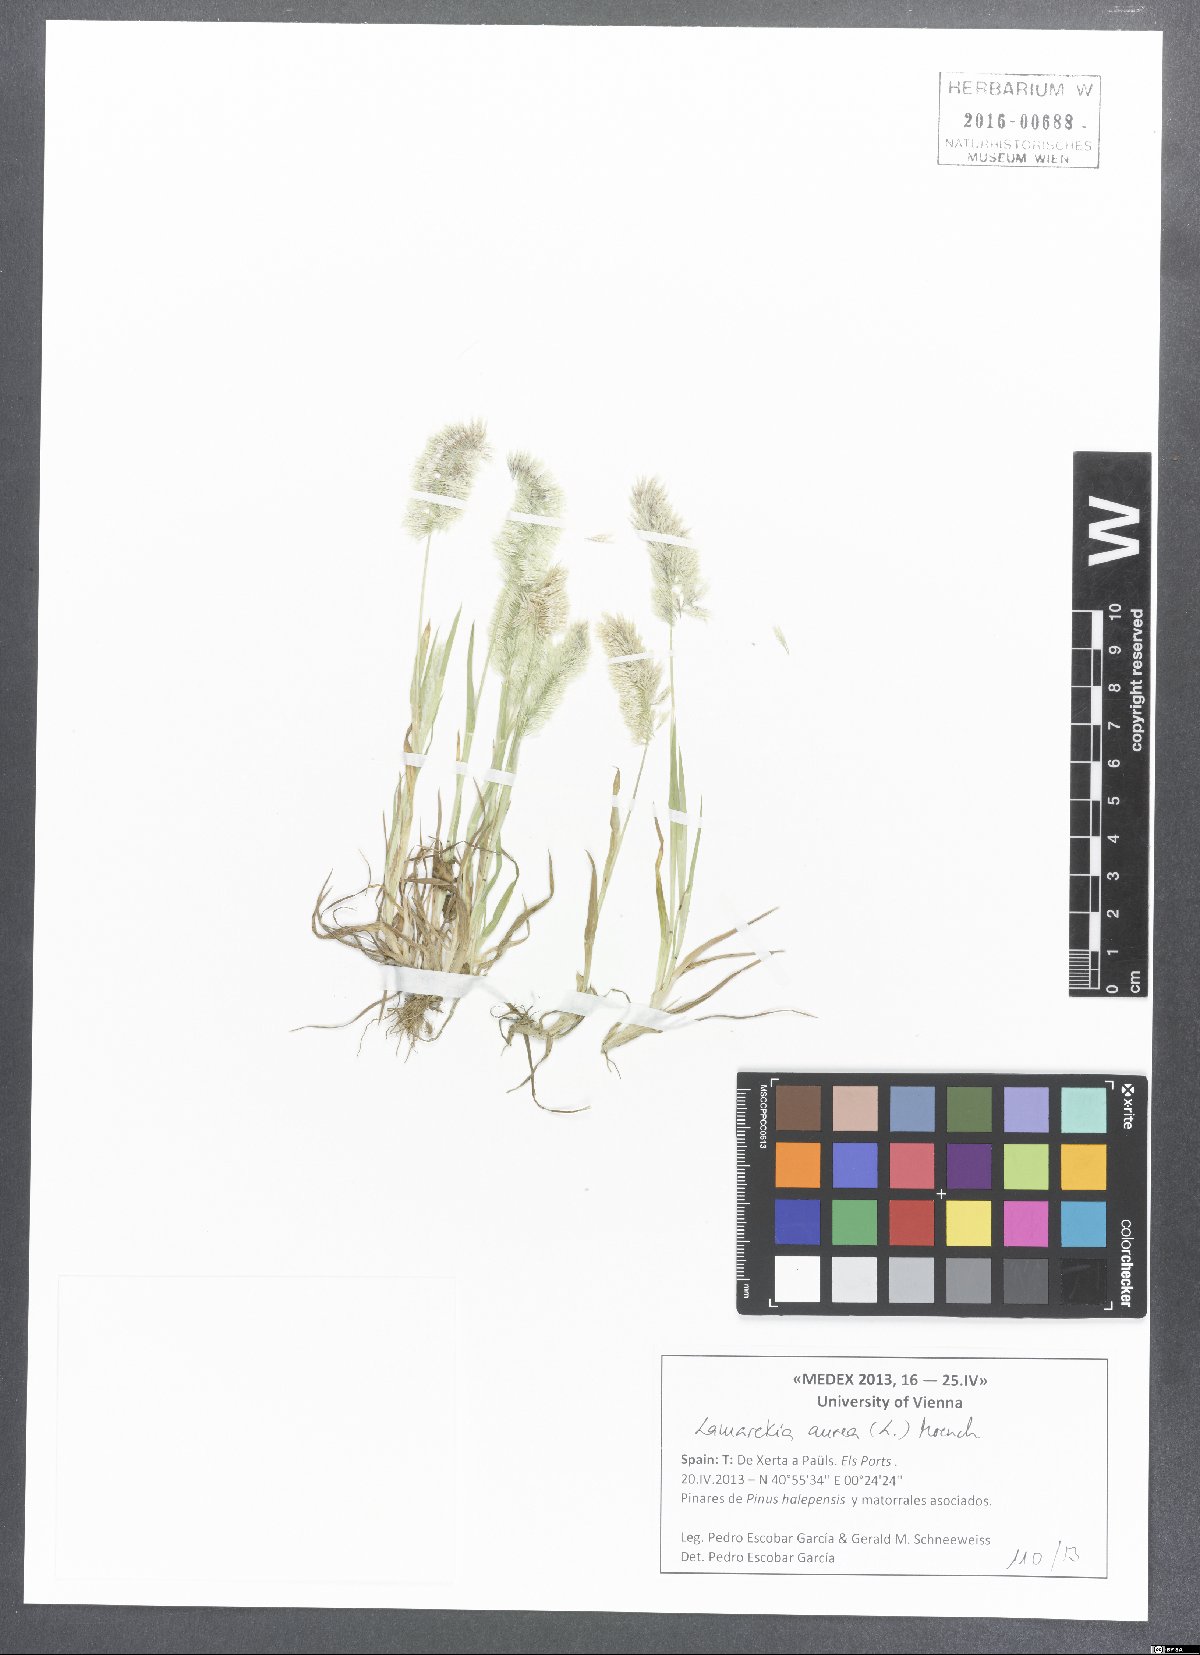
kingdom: Plantae
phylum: Tracheophyta
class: Liliopsida
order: Poales
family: Poaceae
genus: Lamarckia
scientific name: Lamarckia aurea
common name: Golden dog's-tail
